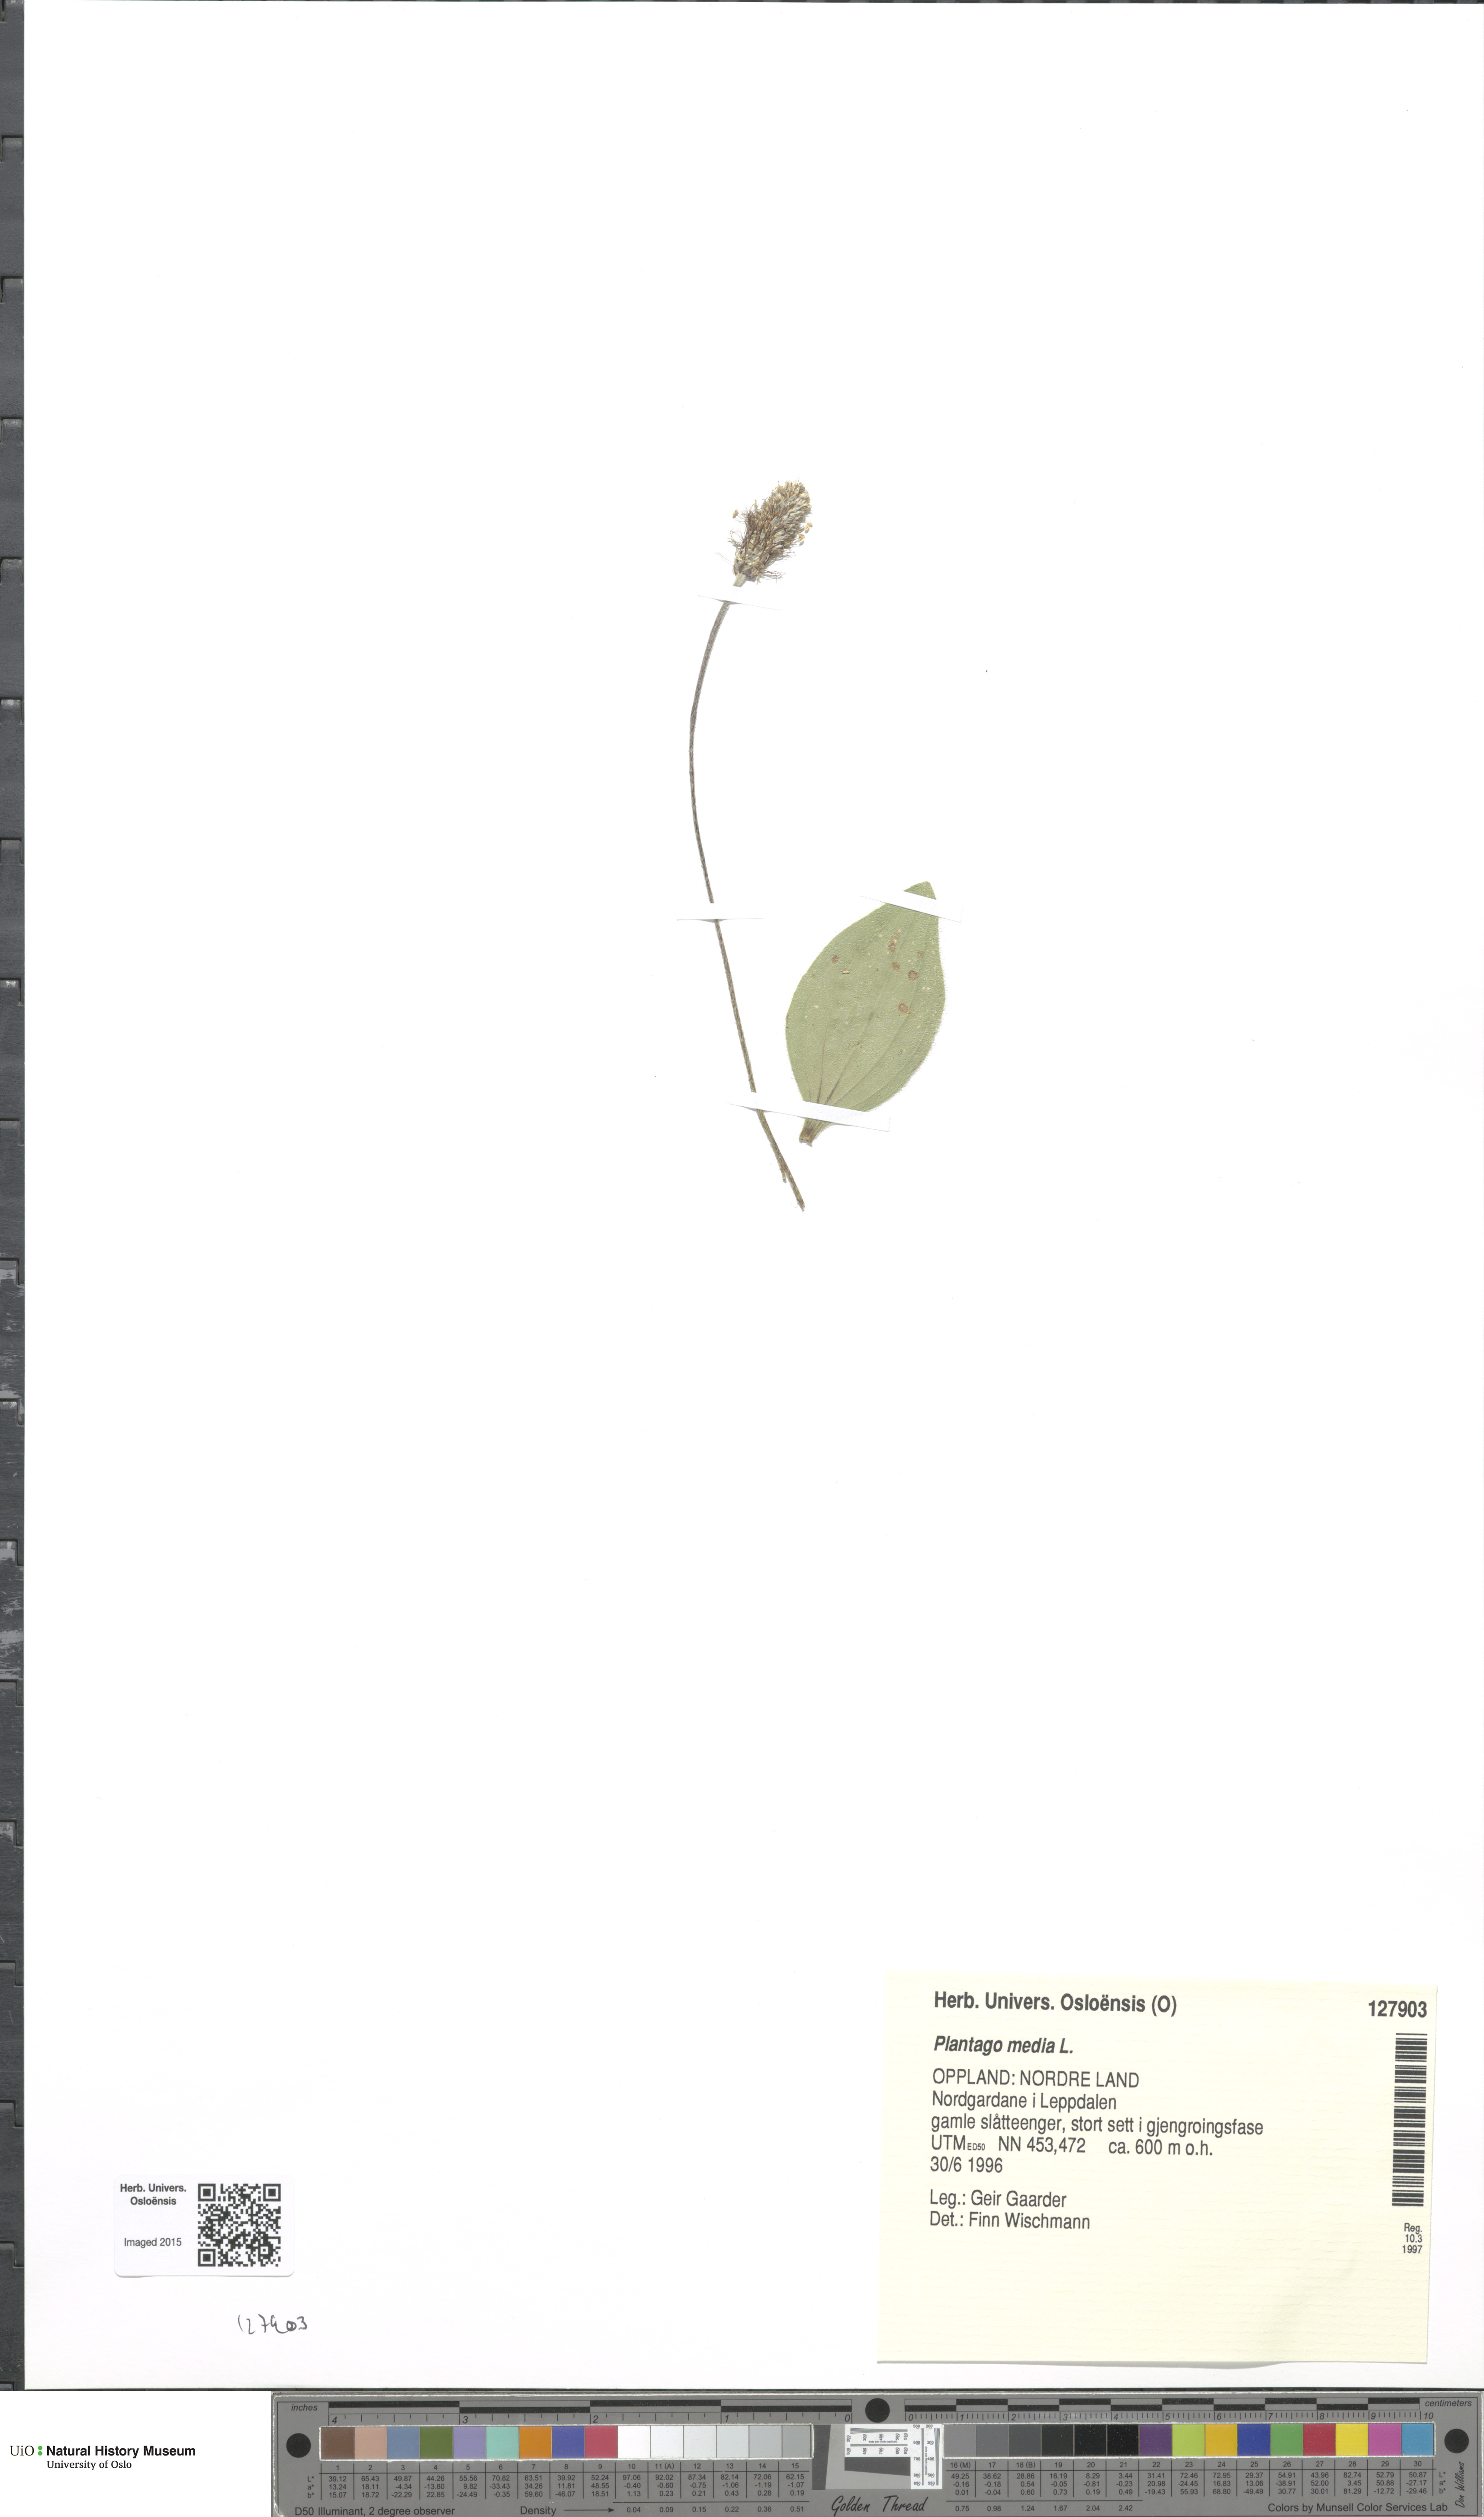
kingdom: Plantae
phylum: Tracheophyta
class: Magnoliopsida
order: Lamiales
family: Plantaginaceae
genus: Plantago
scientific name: Plantago media
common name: Hoary plantain
